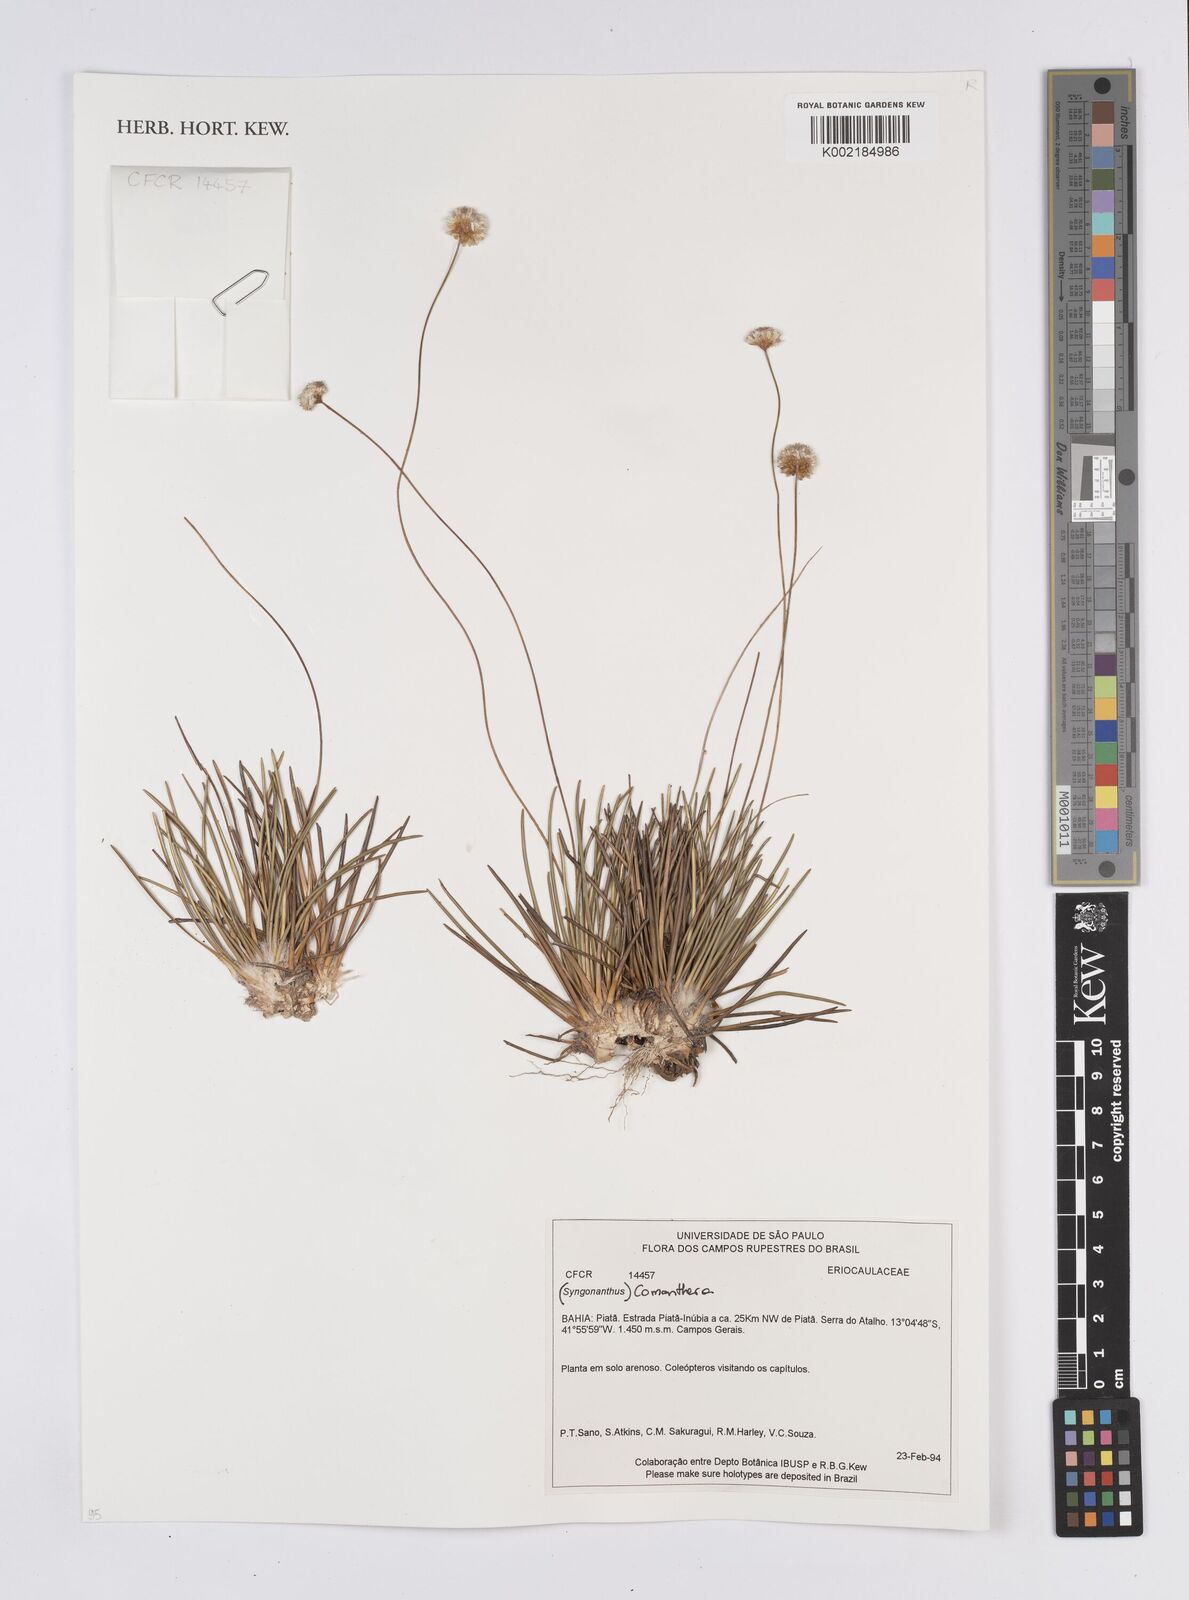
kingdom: Plantae
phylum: Tracheophyta
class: Liliopsida
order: Poales
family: Eriocaulaceae
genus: Comanthera
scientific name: Comanthera
